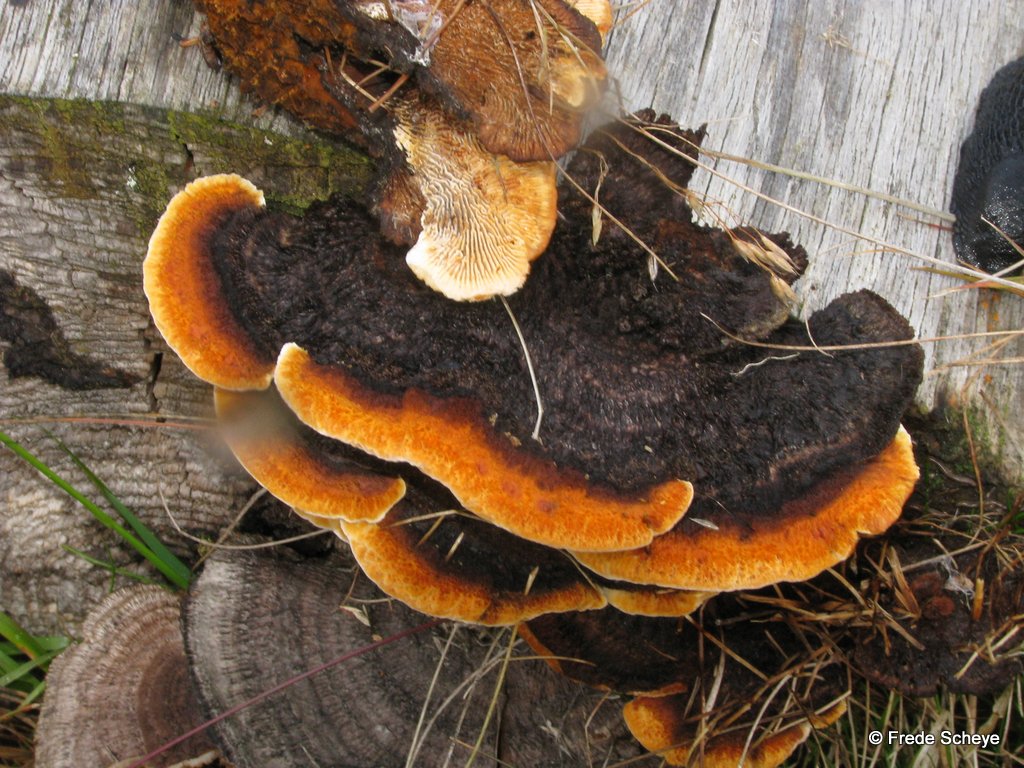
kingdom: Fungi
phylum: Basidiomycota
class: Agaricomycetes
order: Gloeophyllales
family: Gloeophyllaceae
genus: Gloeophyllum
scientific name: Gloeophyllum sepiarium
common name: fyrre-korkhat
